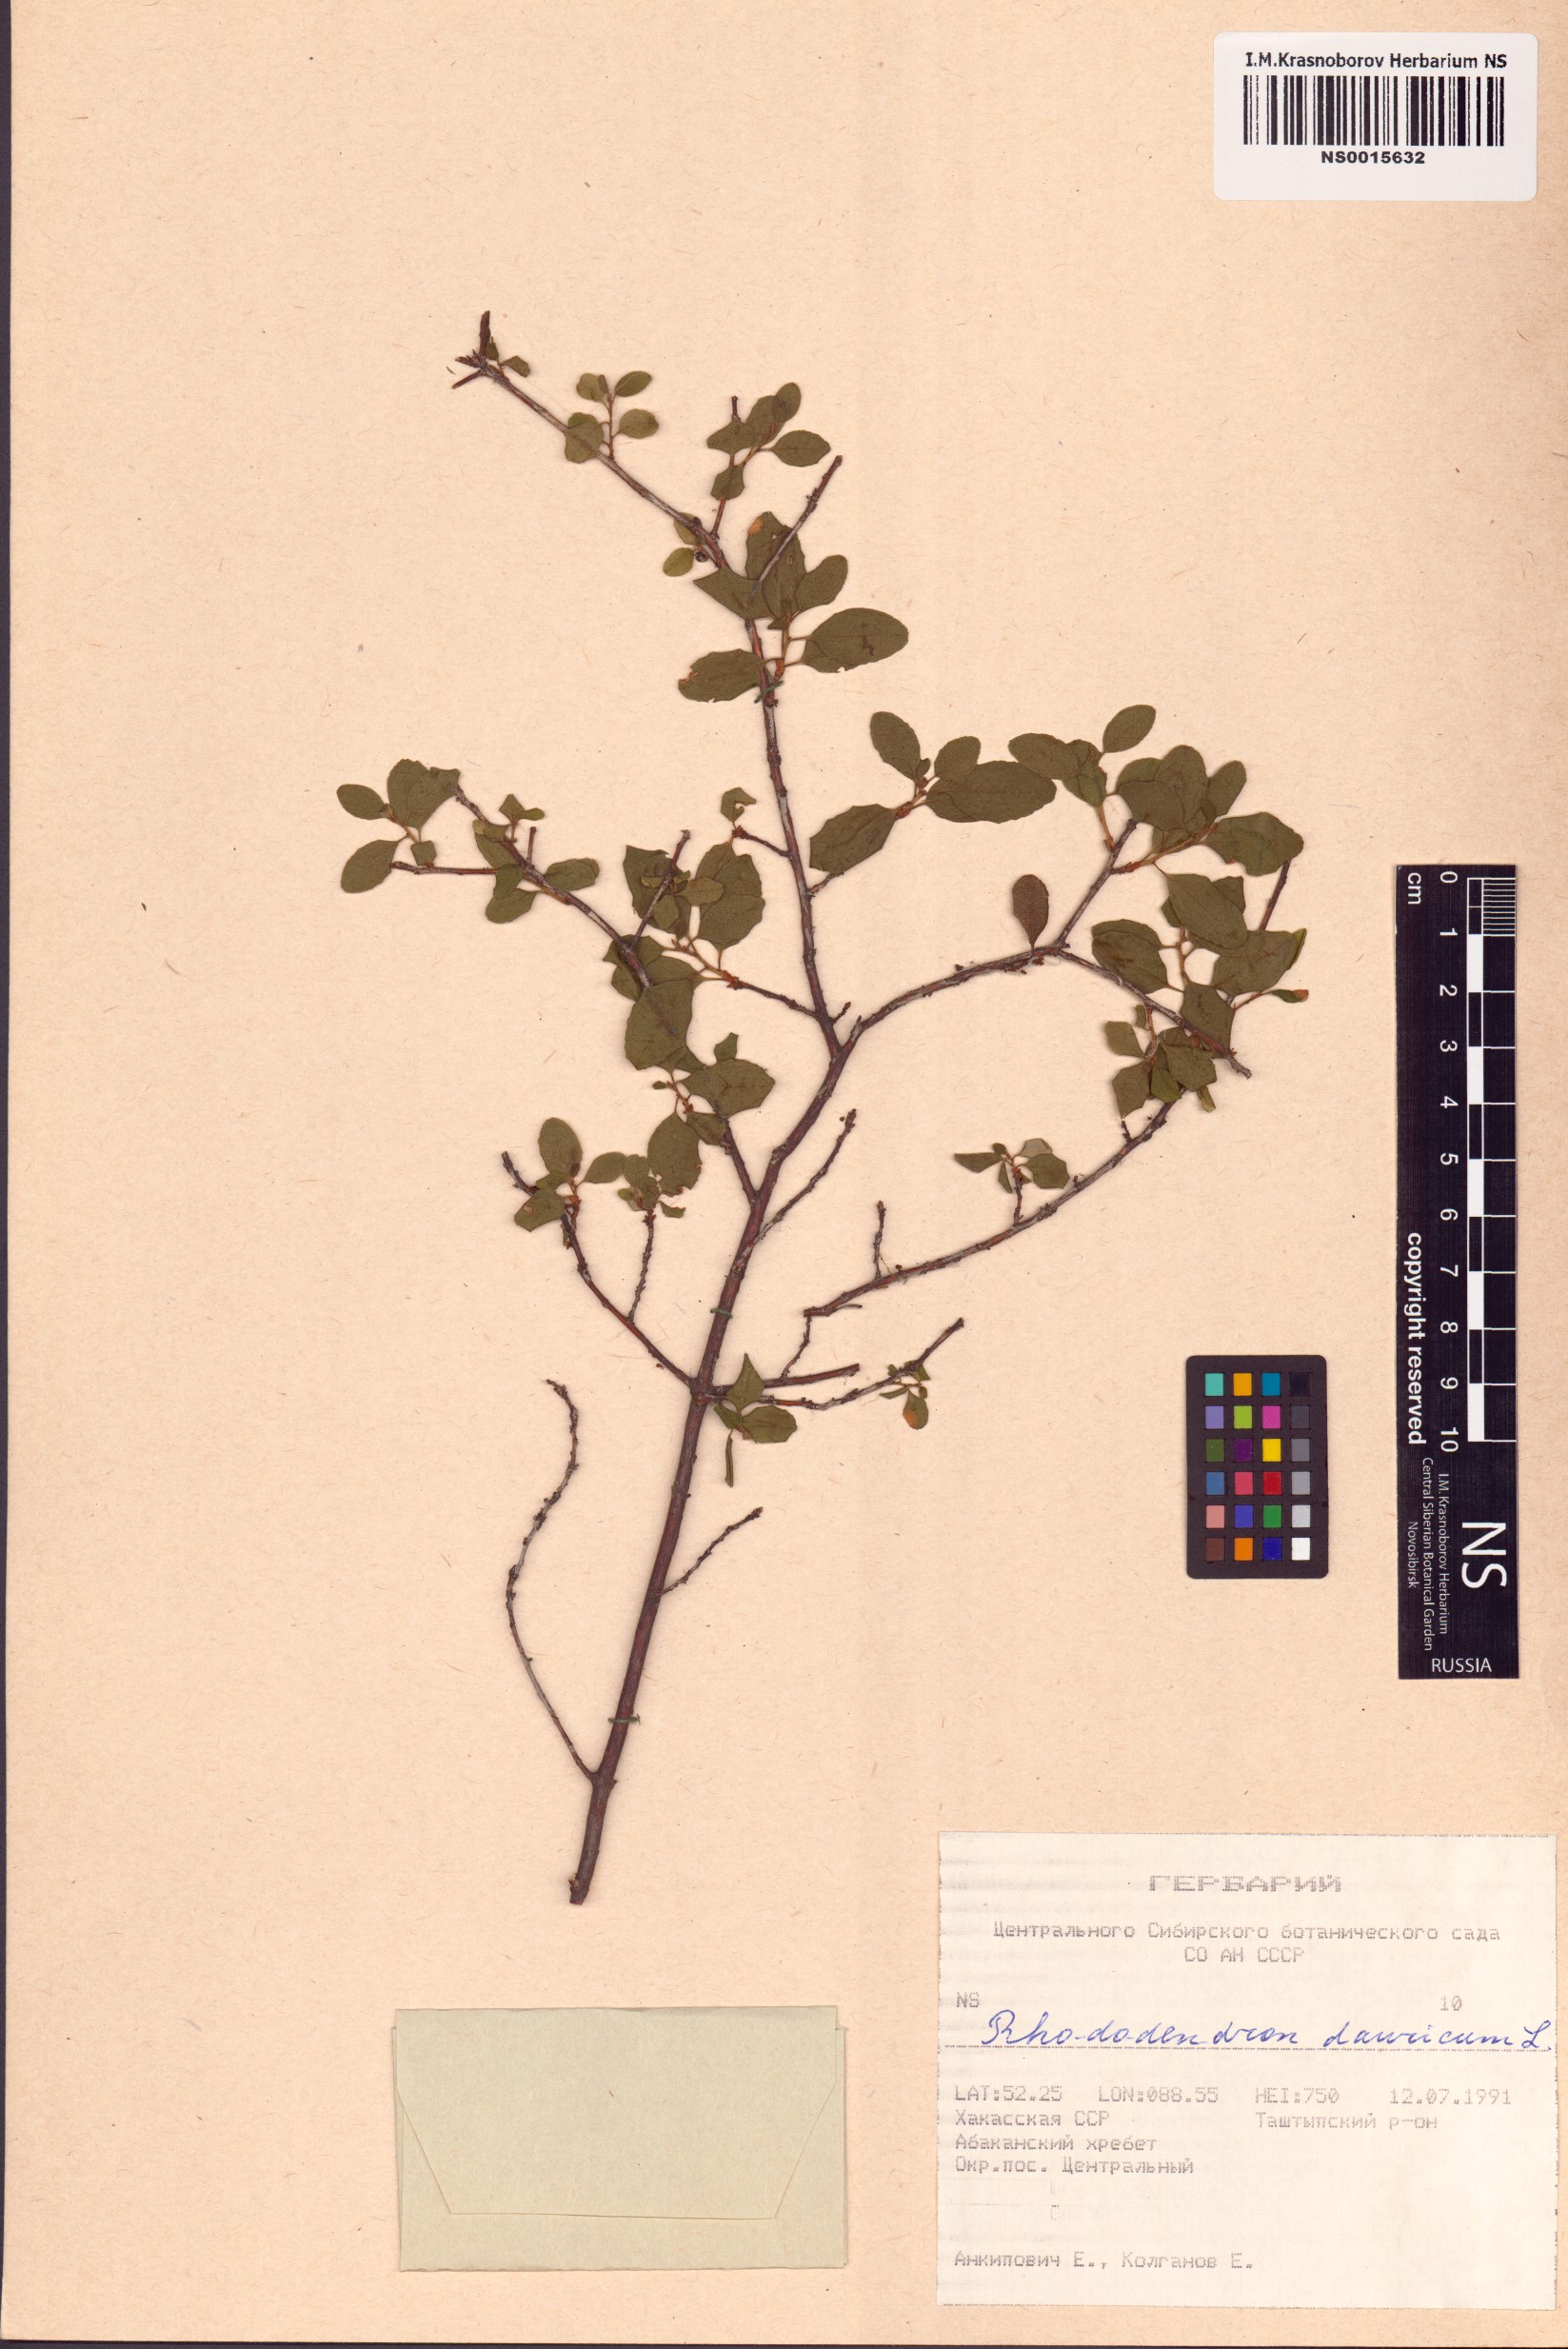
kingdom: Plantae
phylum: Tracheophyta
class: Magnoliopsida
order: Ericales
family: Ericaceae
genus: Rhododendron
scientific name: Rhododendron dauricum
